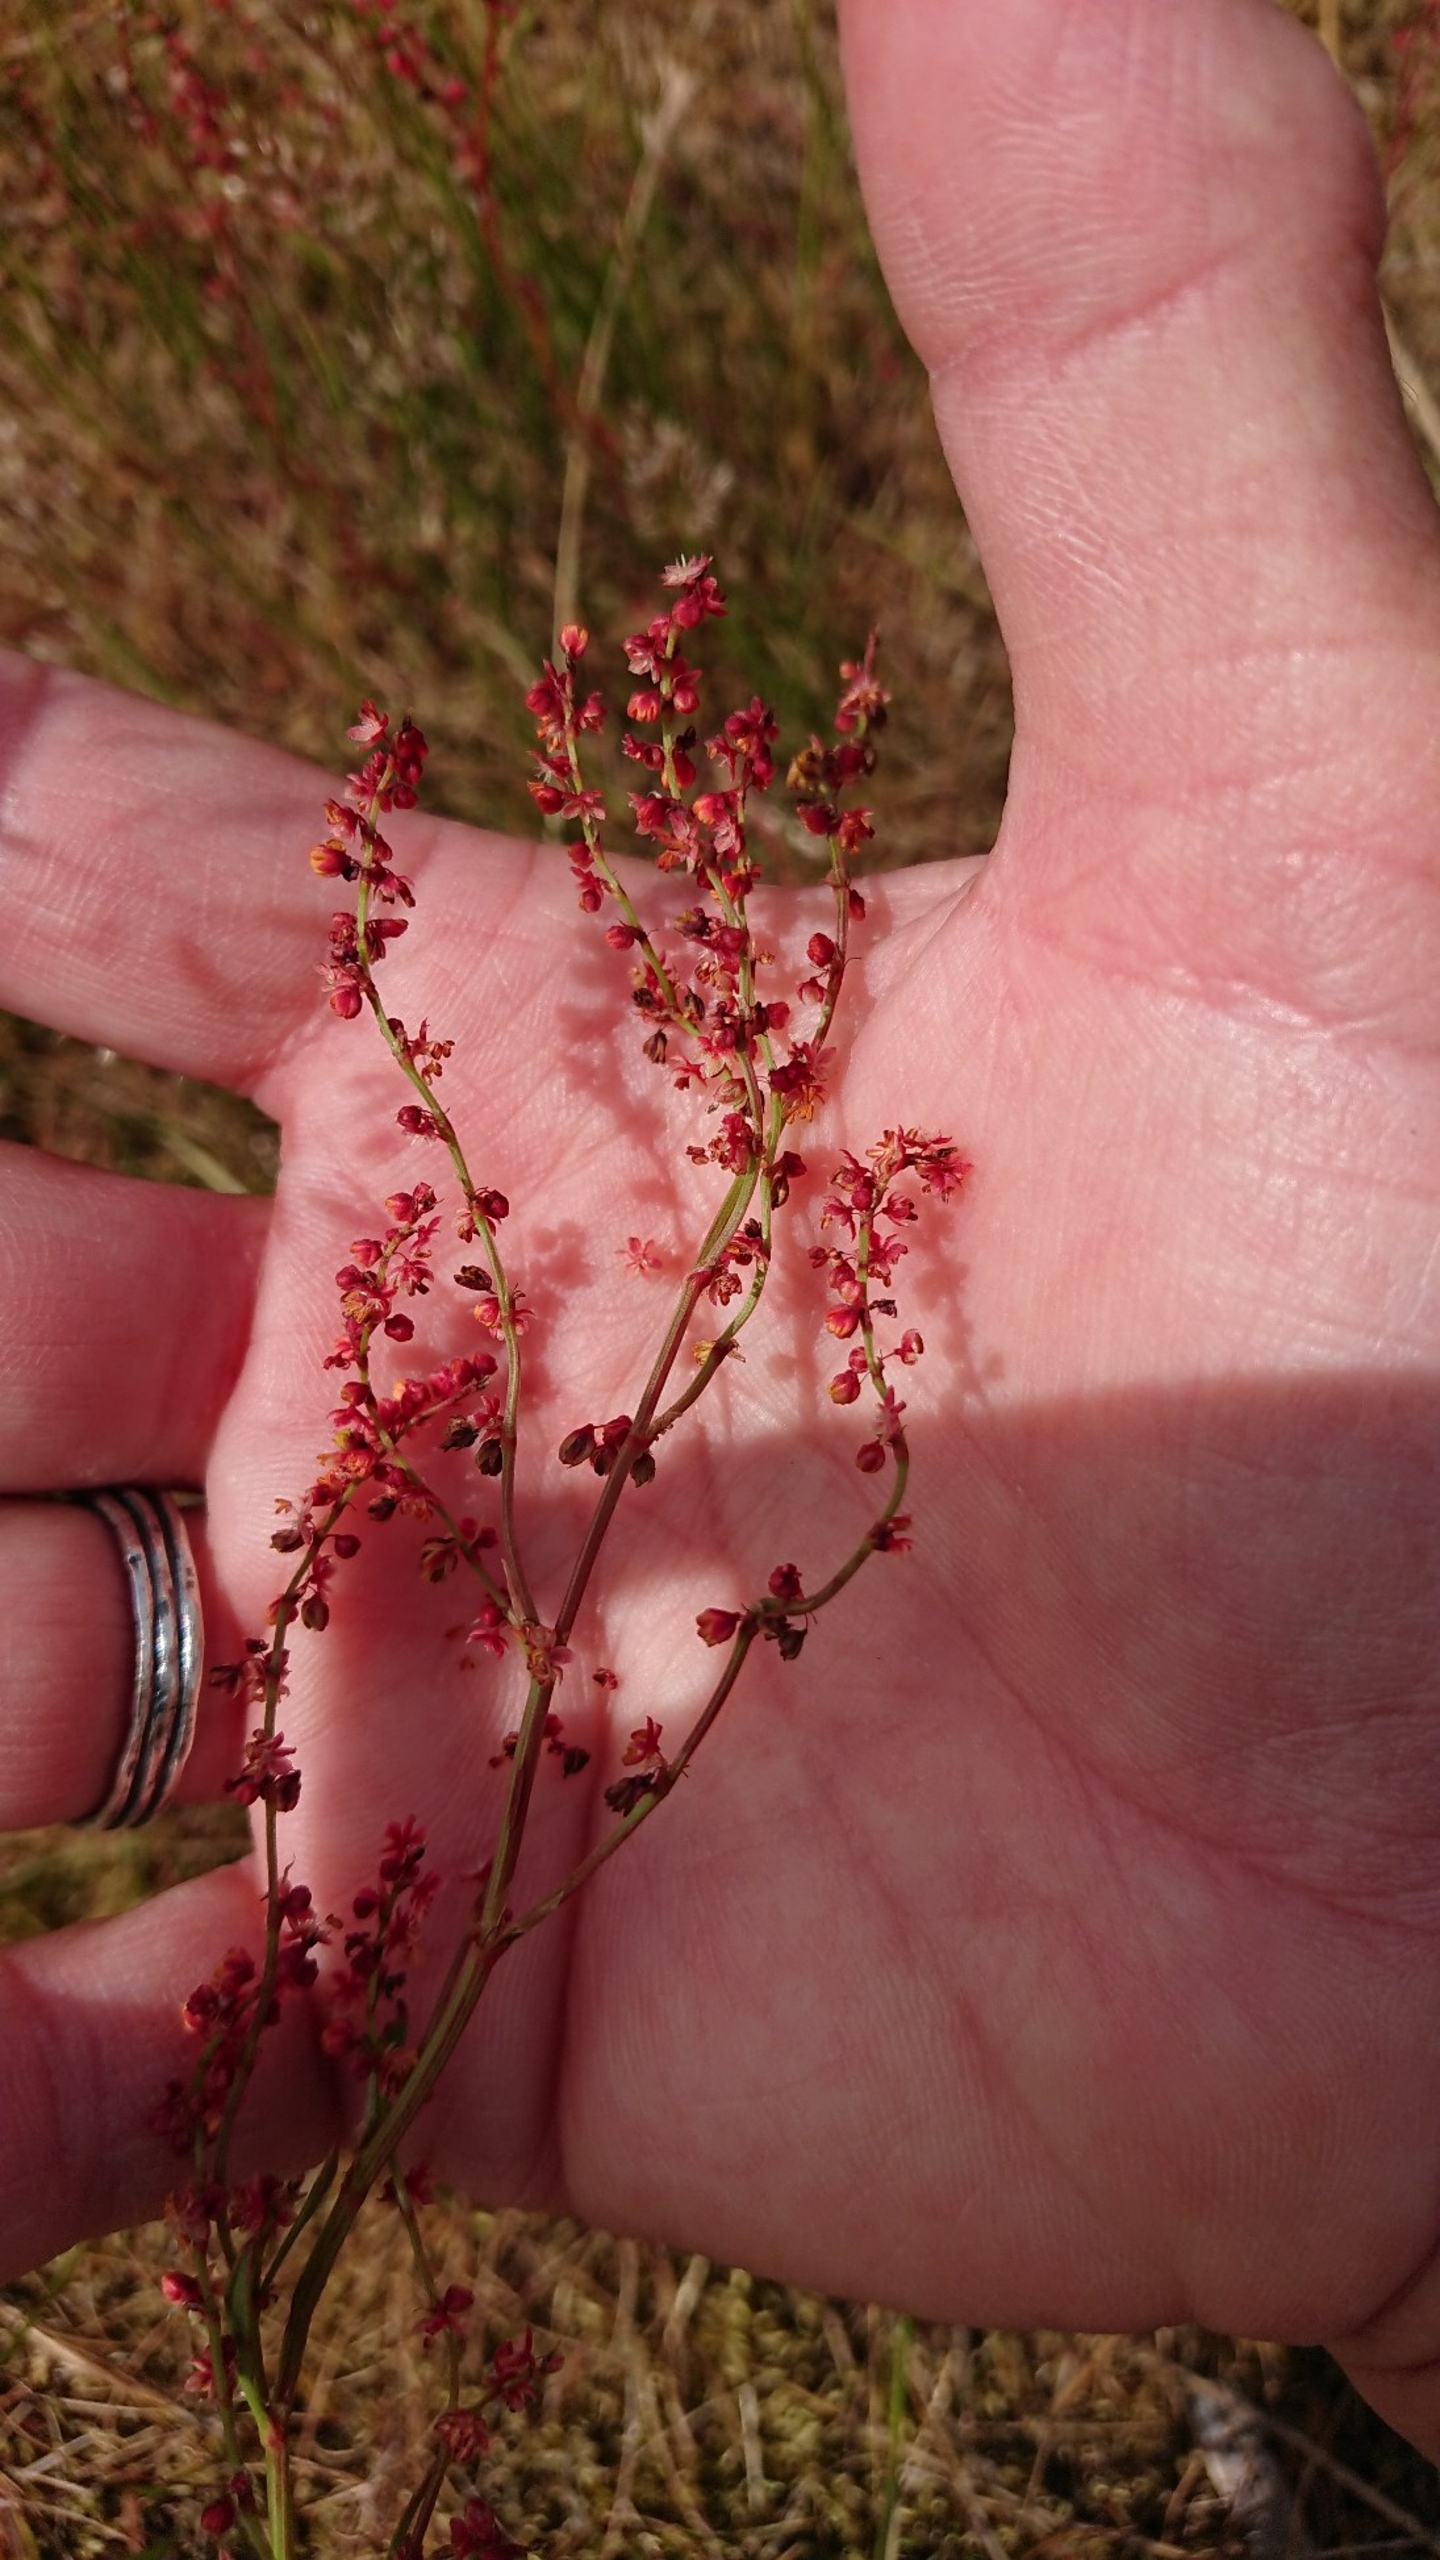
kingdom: Plantae
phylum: Tracheophyta
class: Magnoliopsida
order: Caryophyllales
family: Polygonaceae
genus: Rumex
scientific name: Rumex acetosella
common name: Rødknæ
